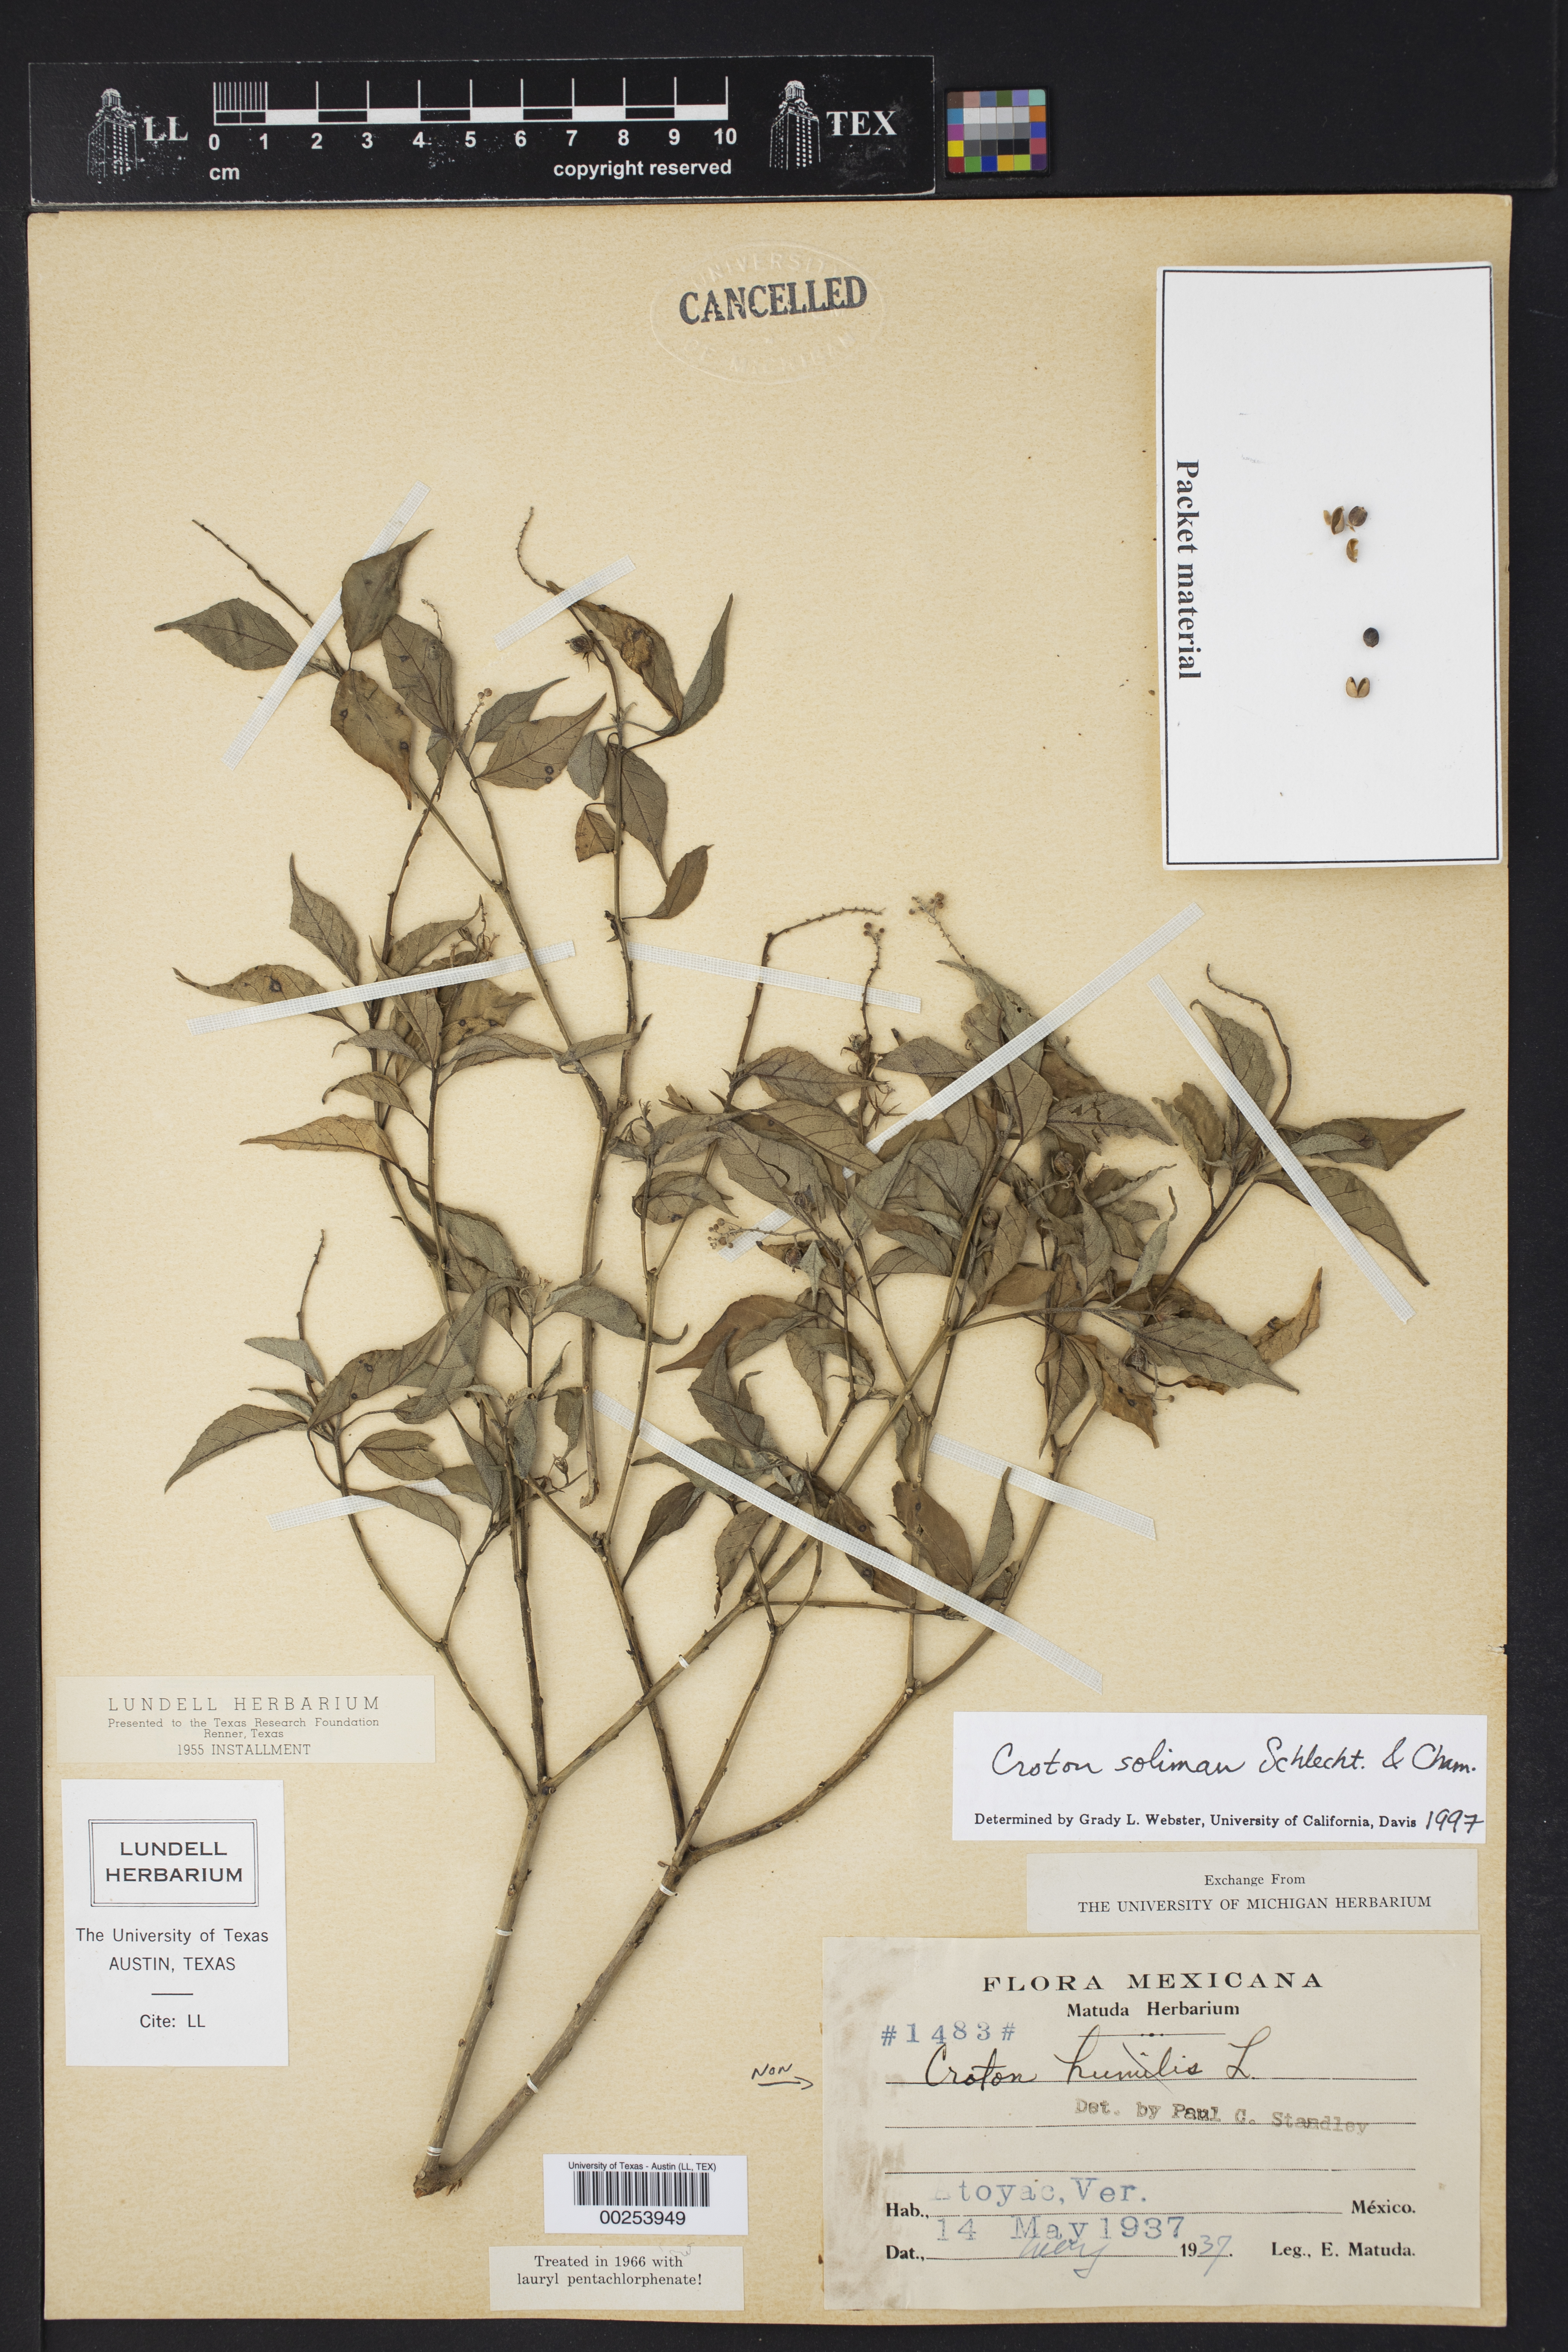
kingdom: Plantae
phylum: Tracheophyta
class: Magnoliopsida
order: Malpighiales
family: Euphorbiaceae
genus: Croton
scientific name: Croton soliman
